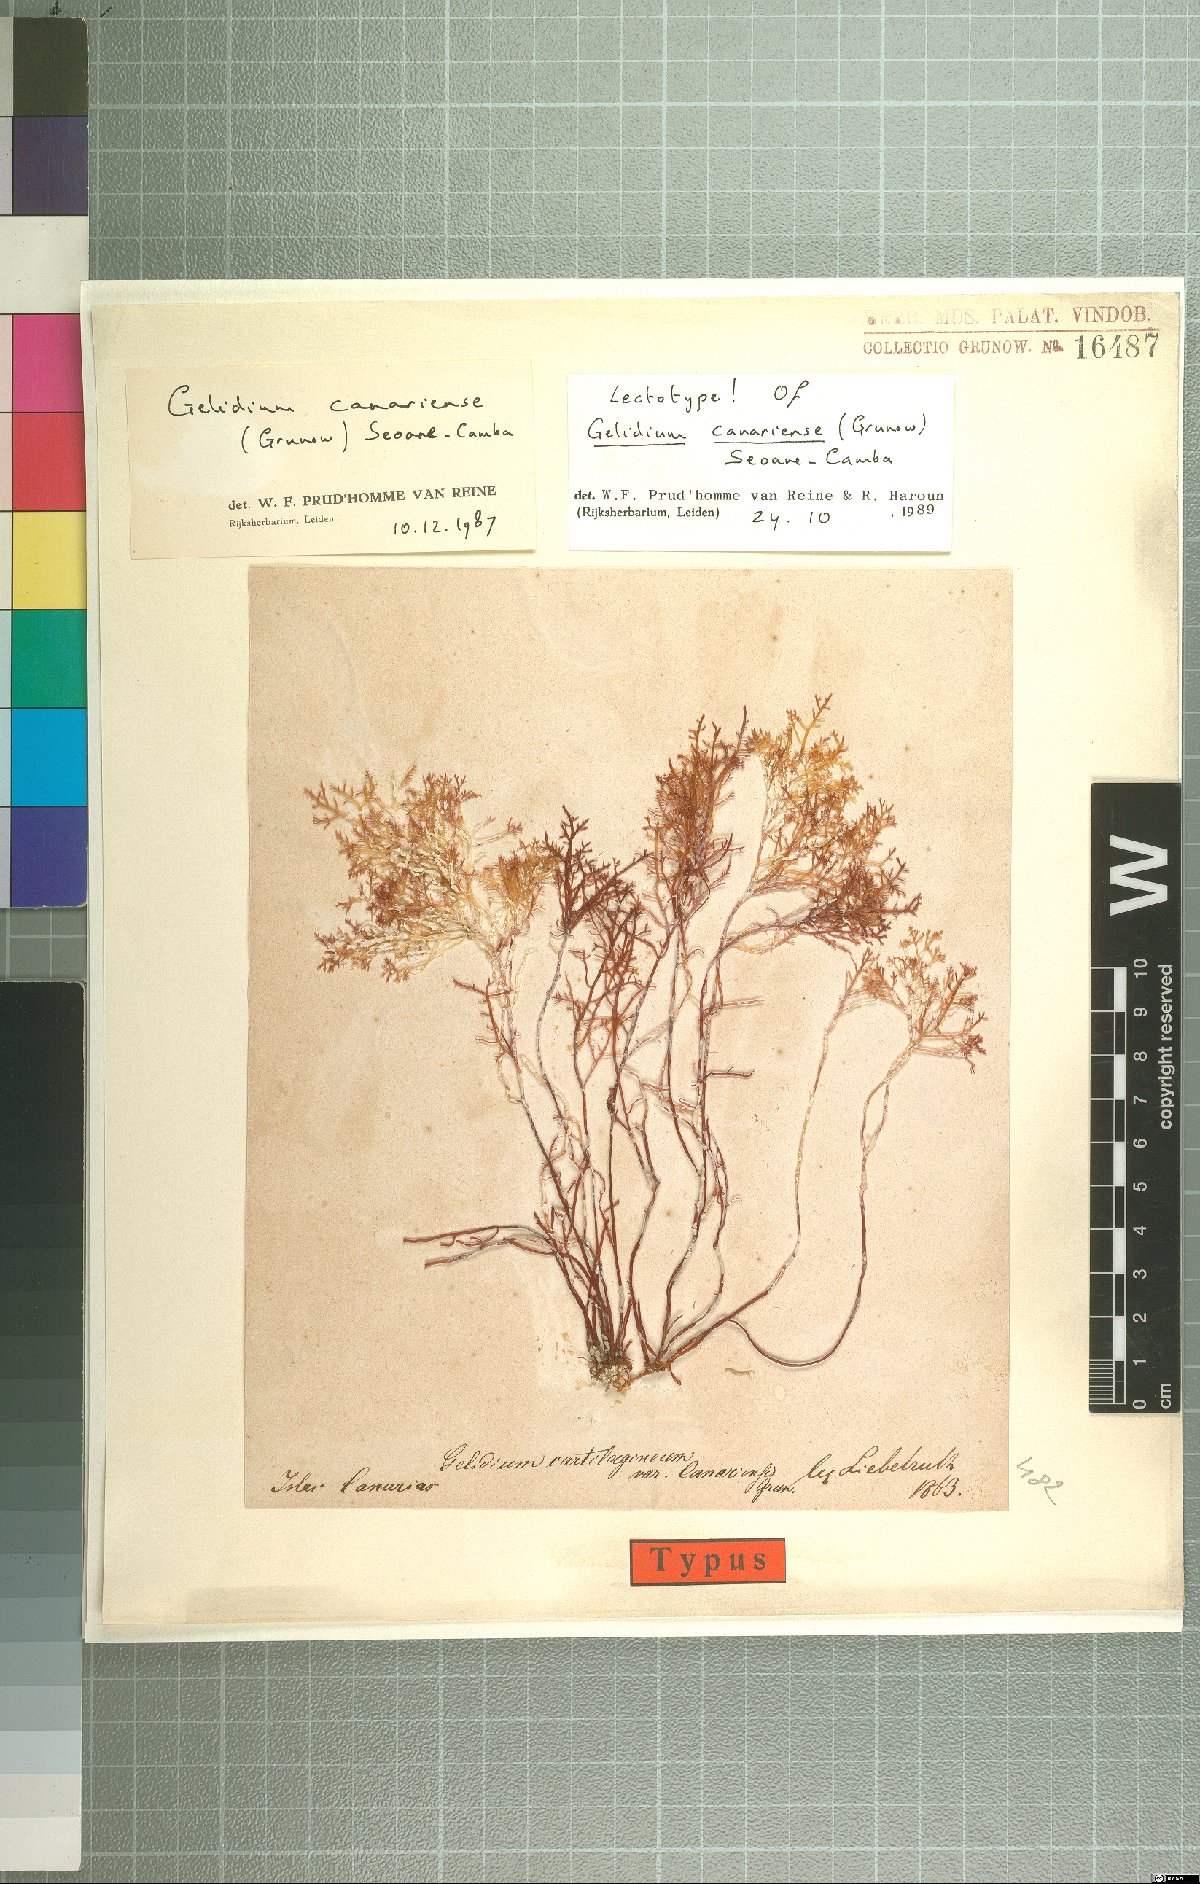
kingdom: Plantae
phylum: Rhodophyta
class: Florideophyceae
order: Plocamiales
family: Plocamiaceae
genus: Plocamium
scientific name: Plocamium cartilagineum
